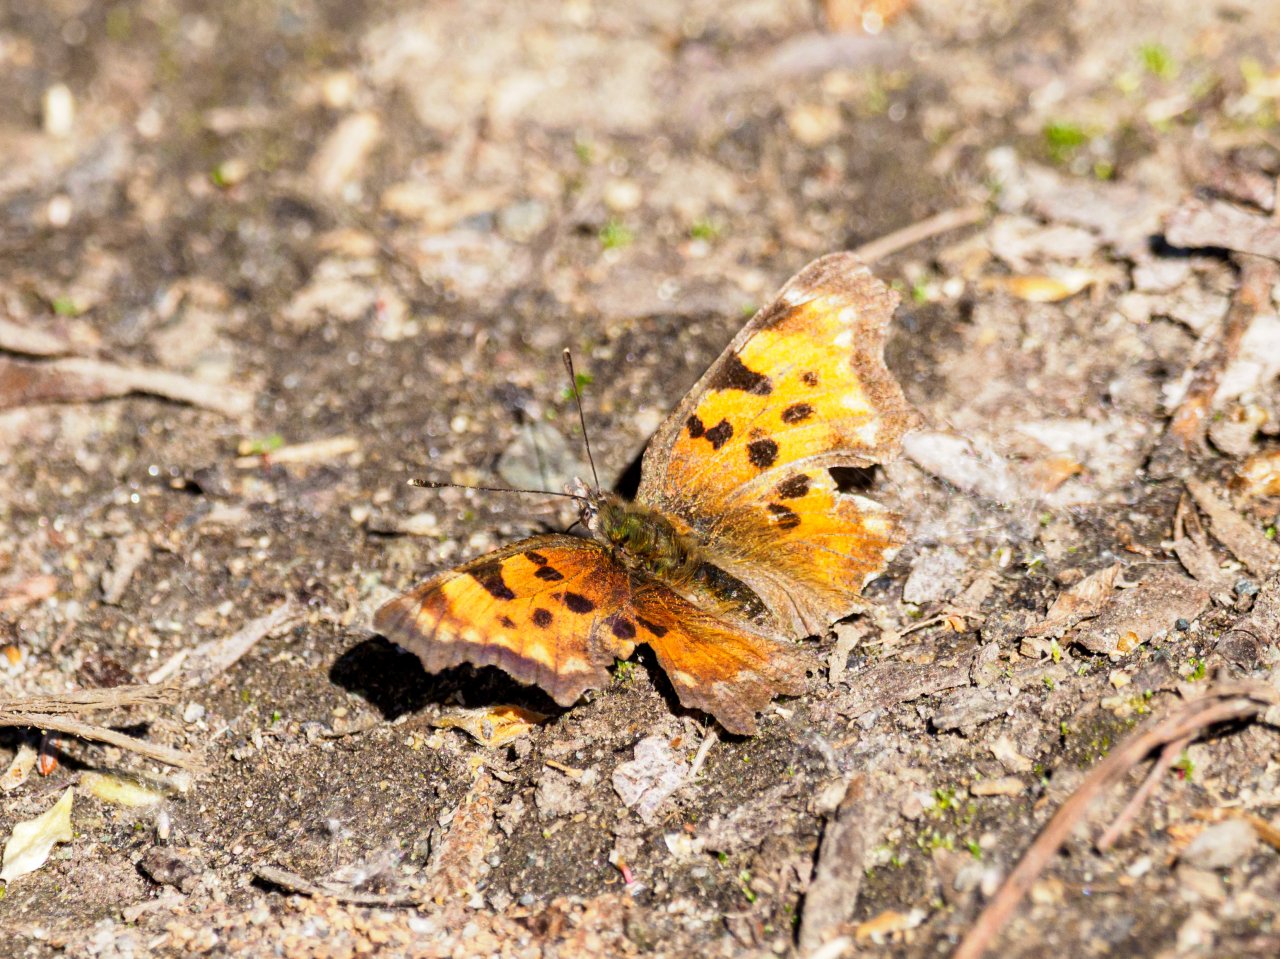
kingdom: Animalia
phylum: Arthropoda
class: Insecta
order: Lepidoptera
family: Nymphalidae
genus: Polygonia
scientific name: Polygonia gracilis
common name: Hoary Comma
